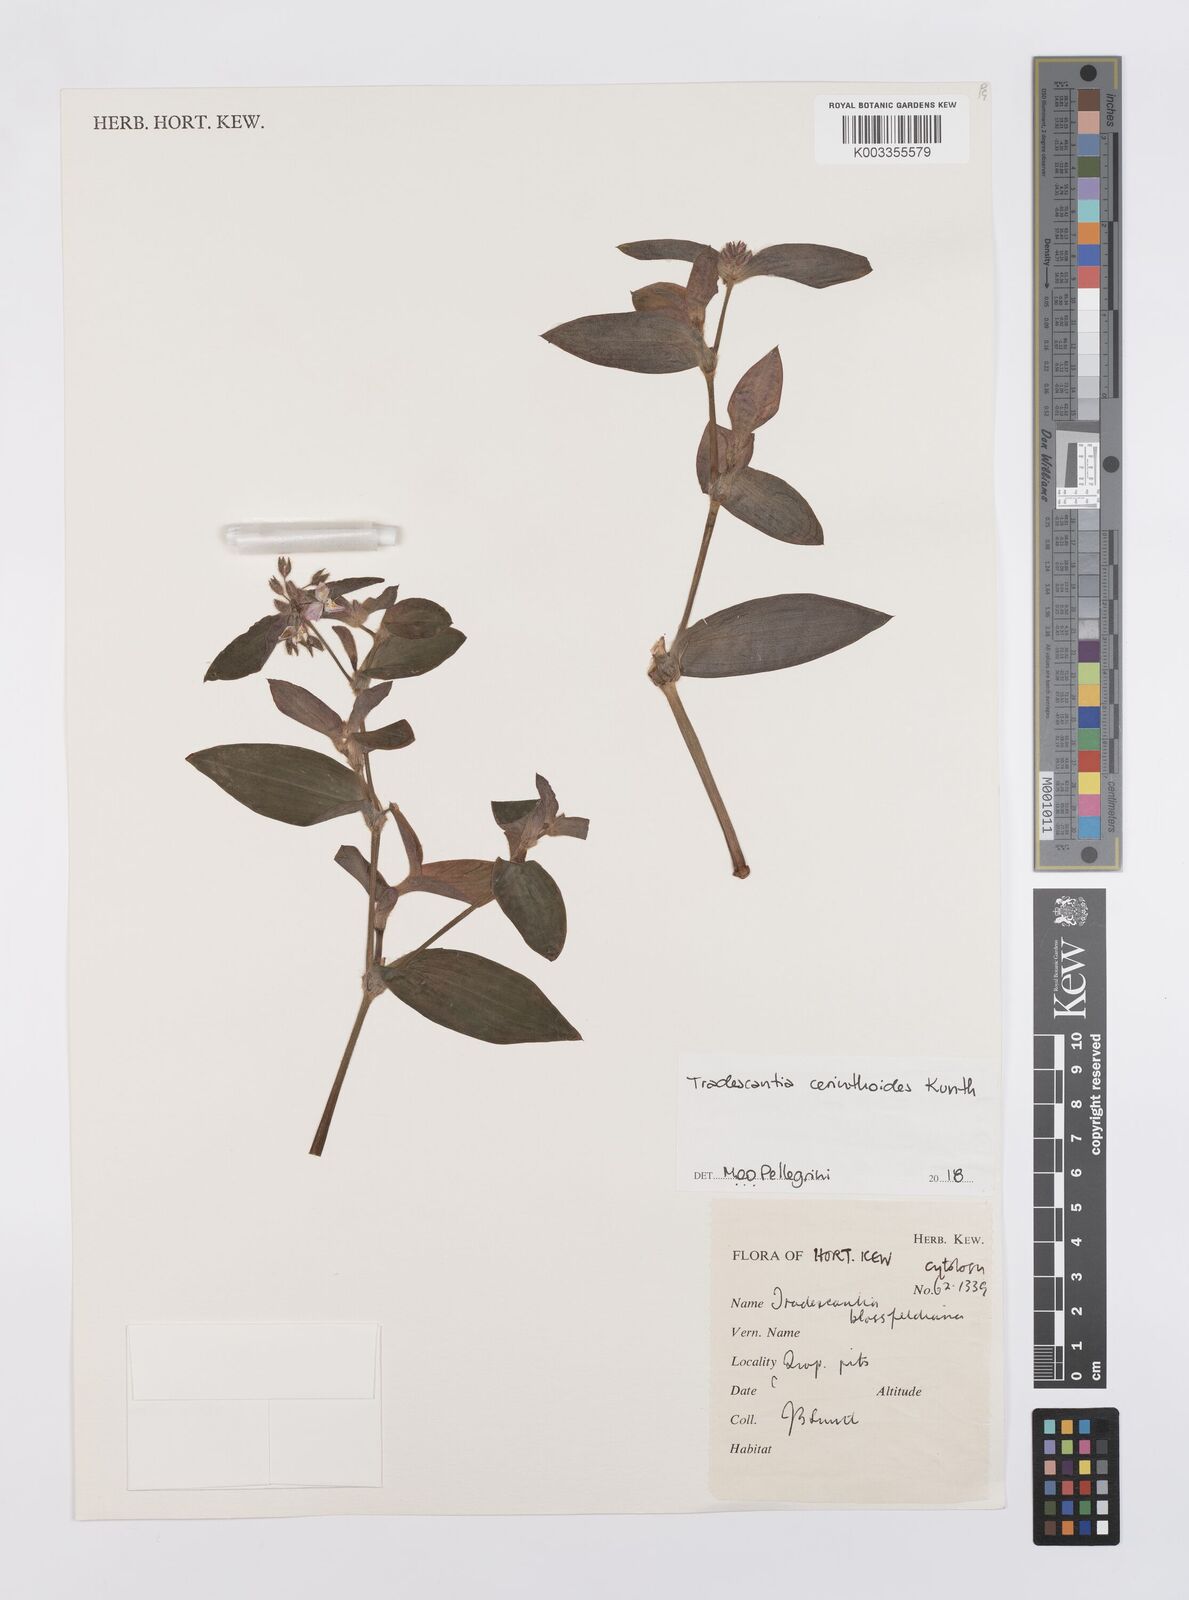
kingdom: Plantae
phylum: Tracheophyta
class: Liliopsida
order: Commelinales
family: Commelinaceae
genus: Tradescantia
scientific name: Tradescantia cerinthoides
